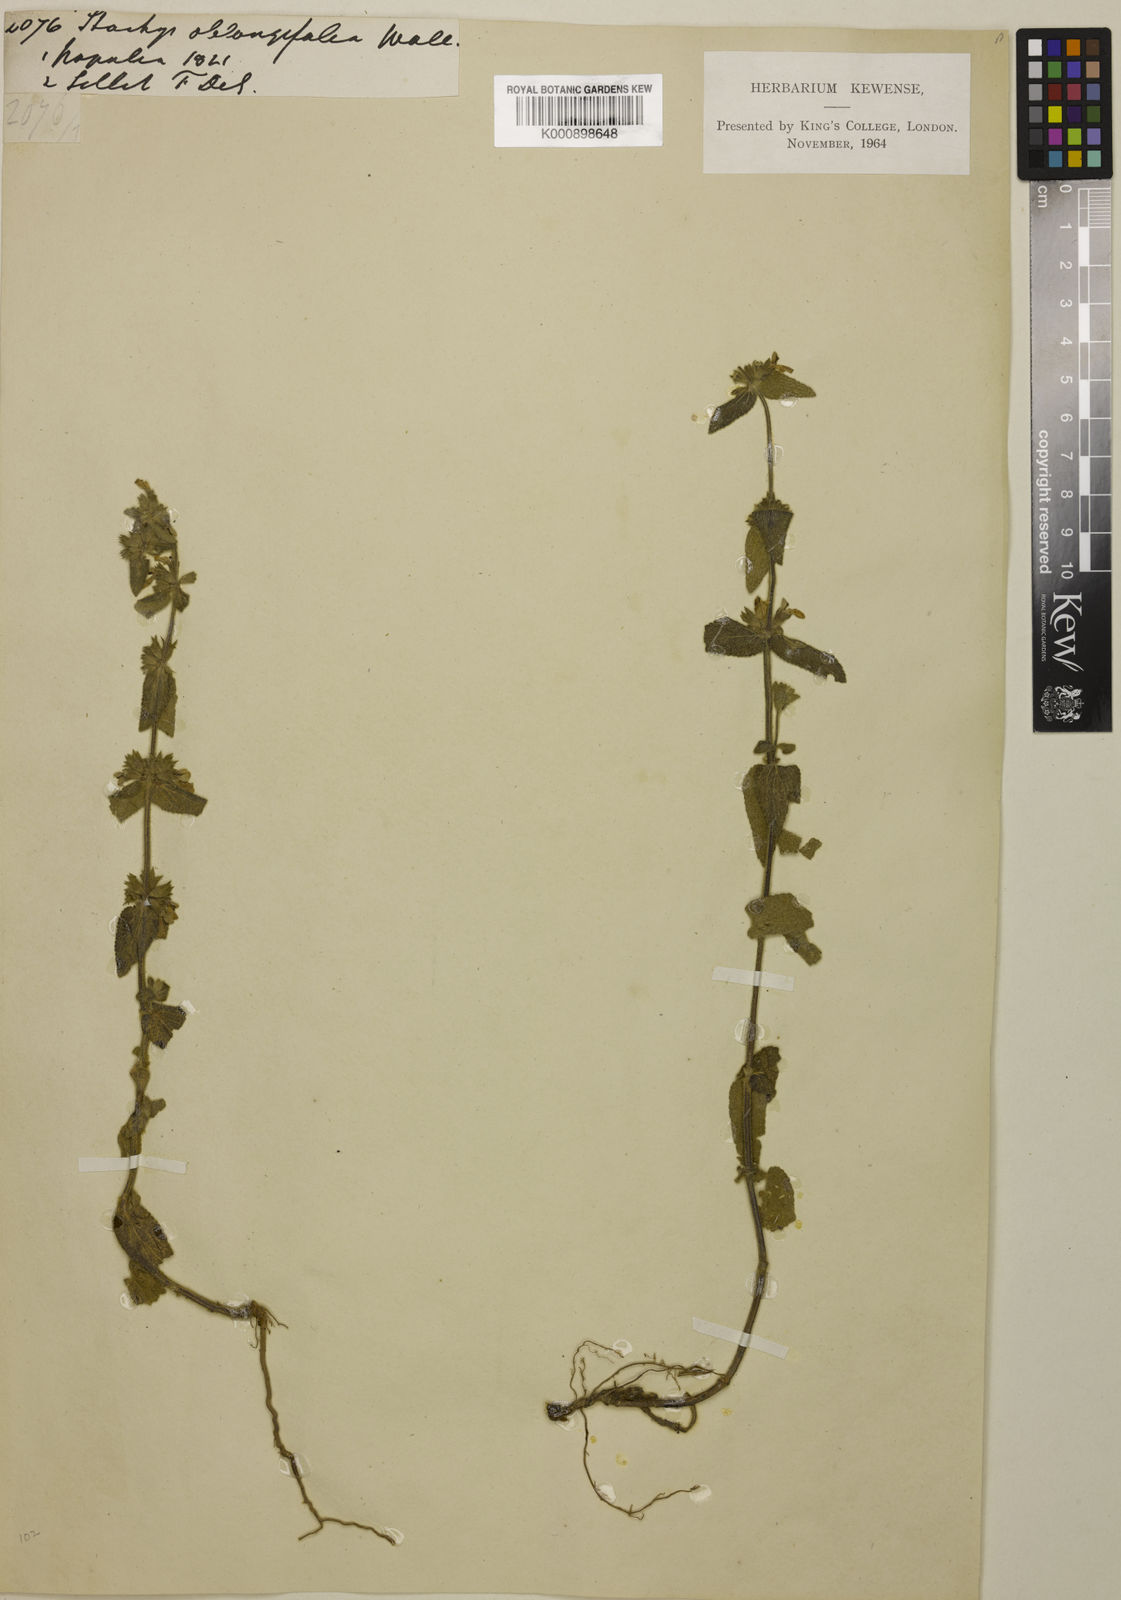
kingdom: Plantae
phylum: Tracheophyta
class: Magnoliopsida
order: Lamiales
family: Lamiaceae
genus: Stachys
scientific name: Stachys oblongifolia
